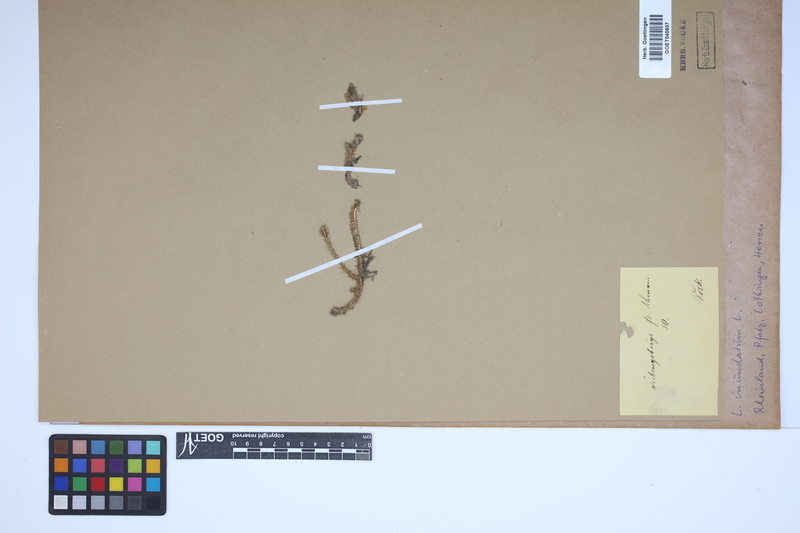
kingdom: Plantae
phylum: Tracheophyta
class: Lycopodiopsida
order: Lycopodiales
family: Lycopodiaceae
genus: Lycopodiella
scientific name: Lycopodiella inundata
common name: Marsh clubmoss
